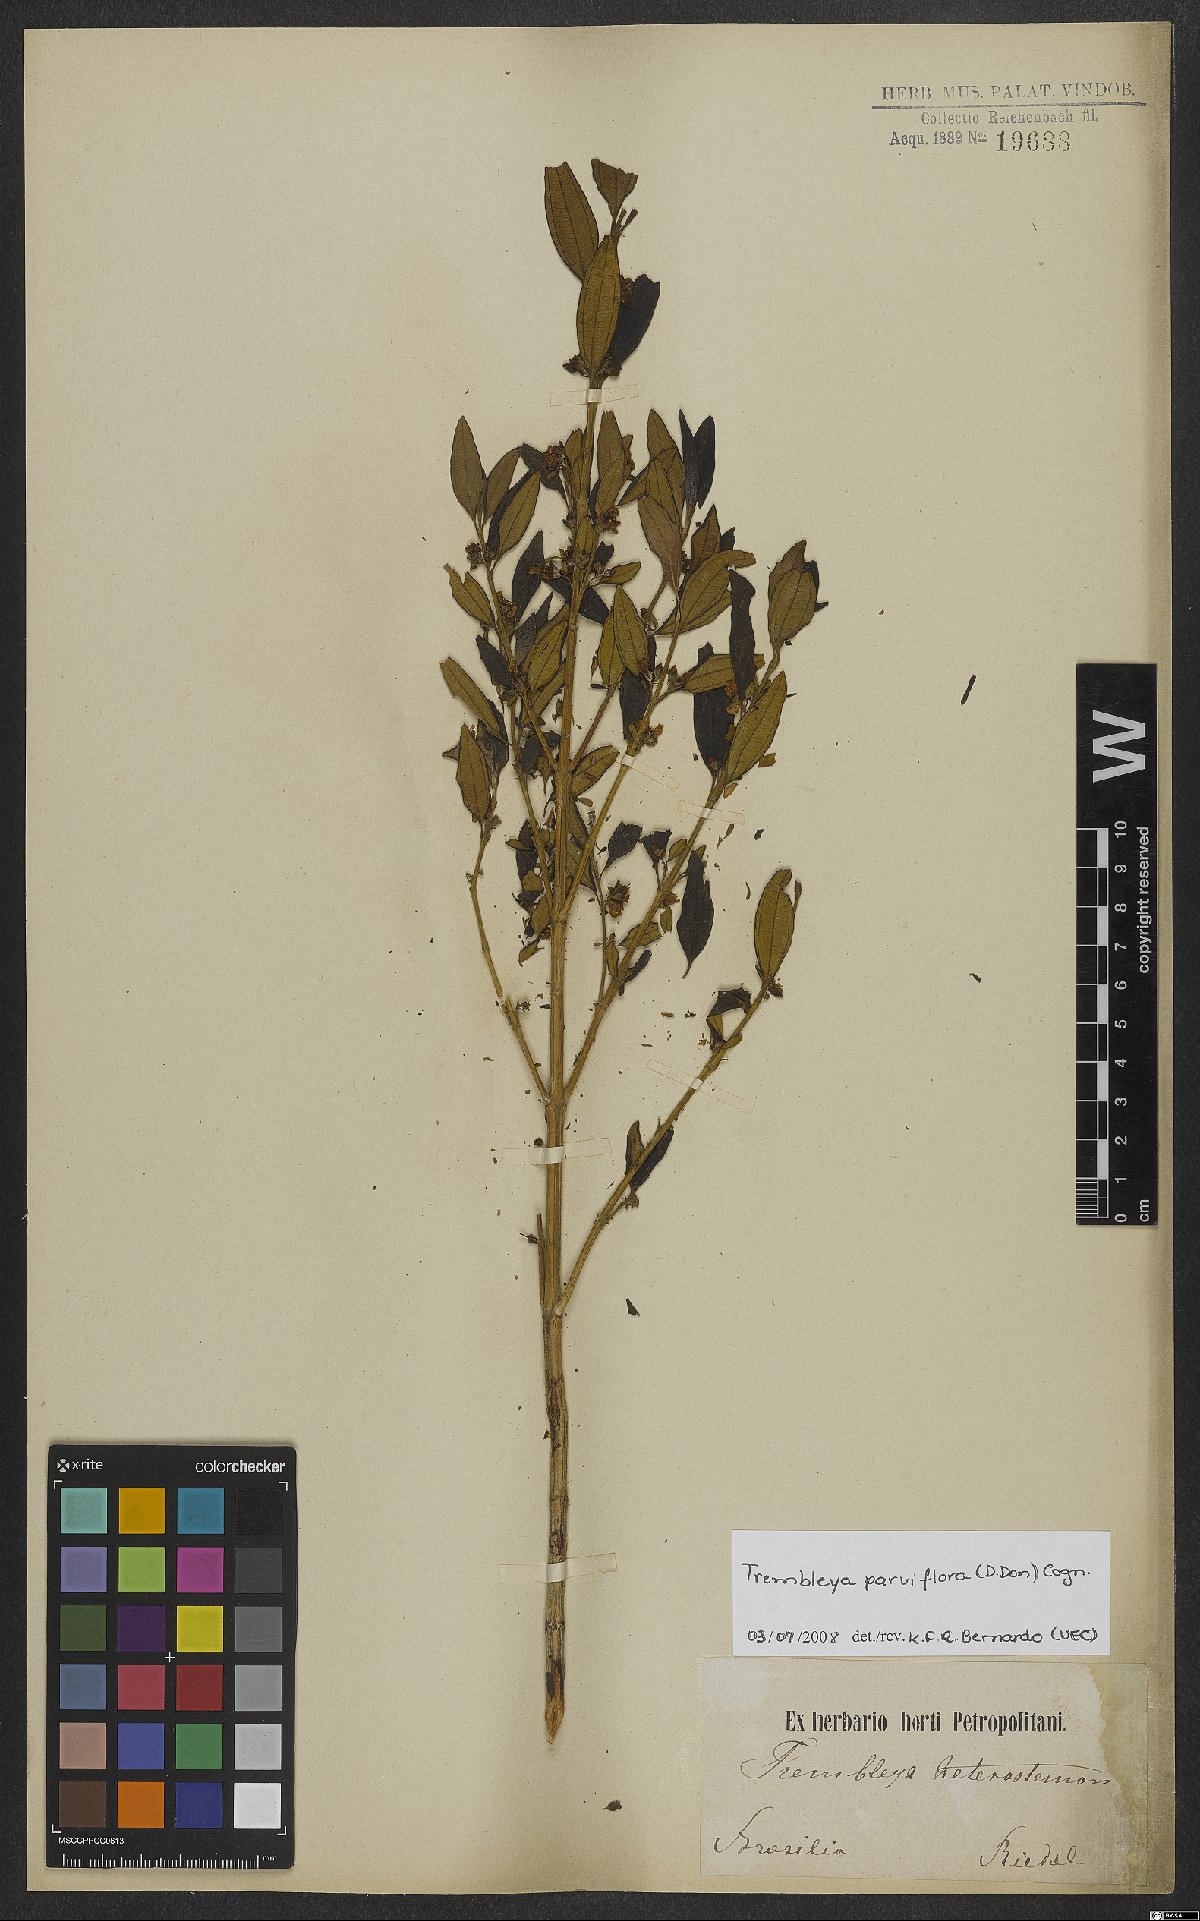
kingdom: Plantae
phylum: Tracheophyta
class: Magnoliopsida
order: Myrtales
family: Melastomataceae
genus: Microlicia
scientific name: Microlicia parviflora
